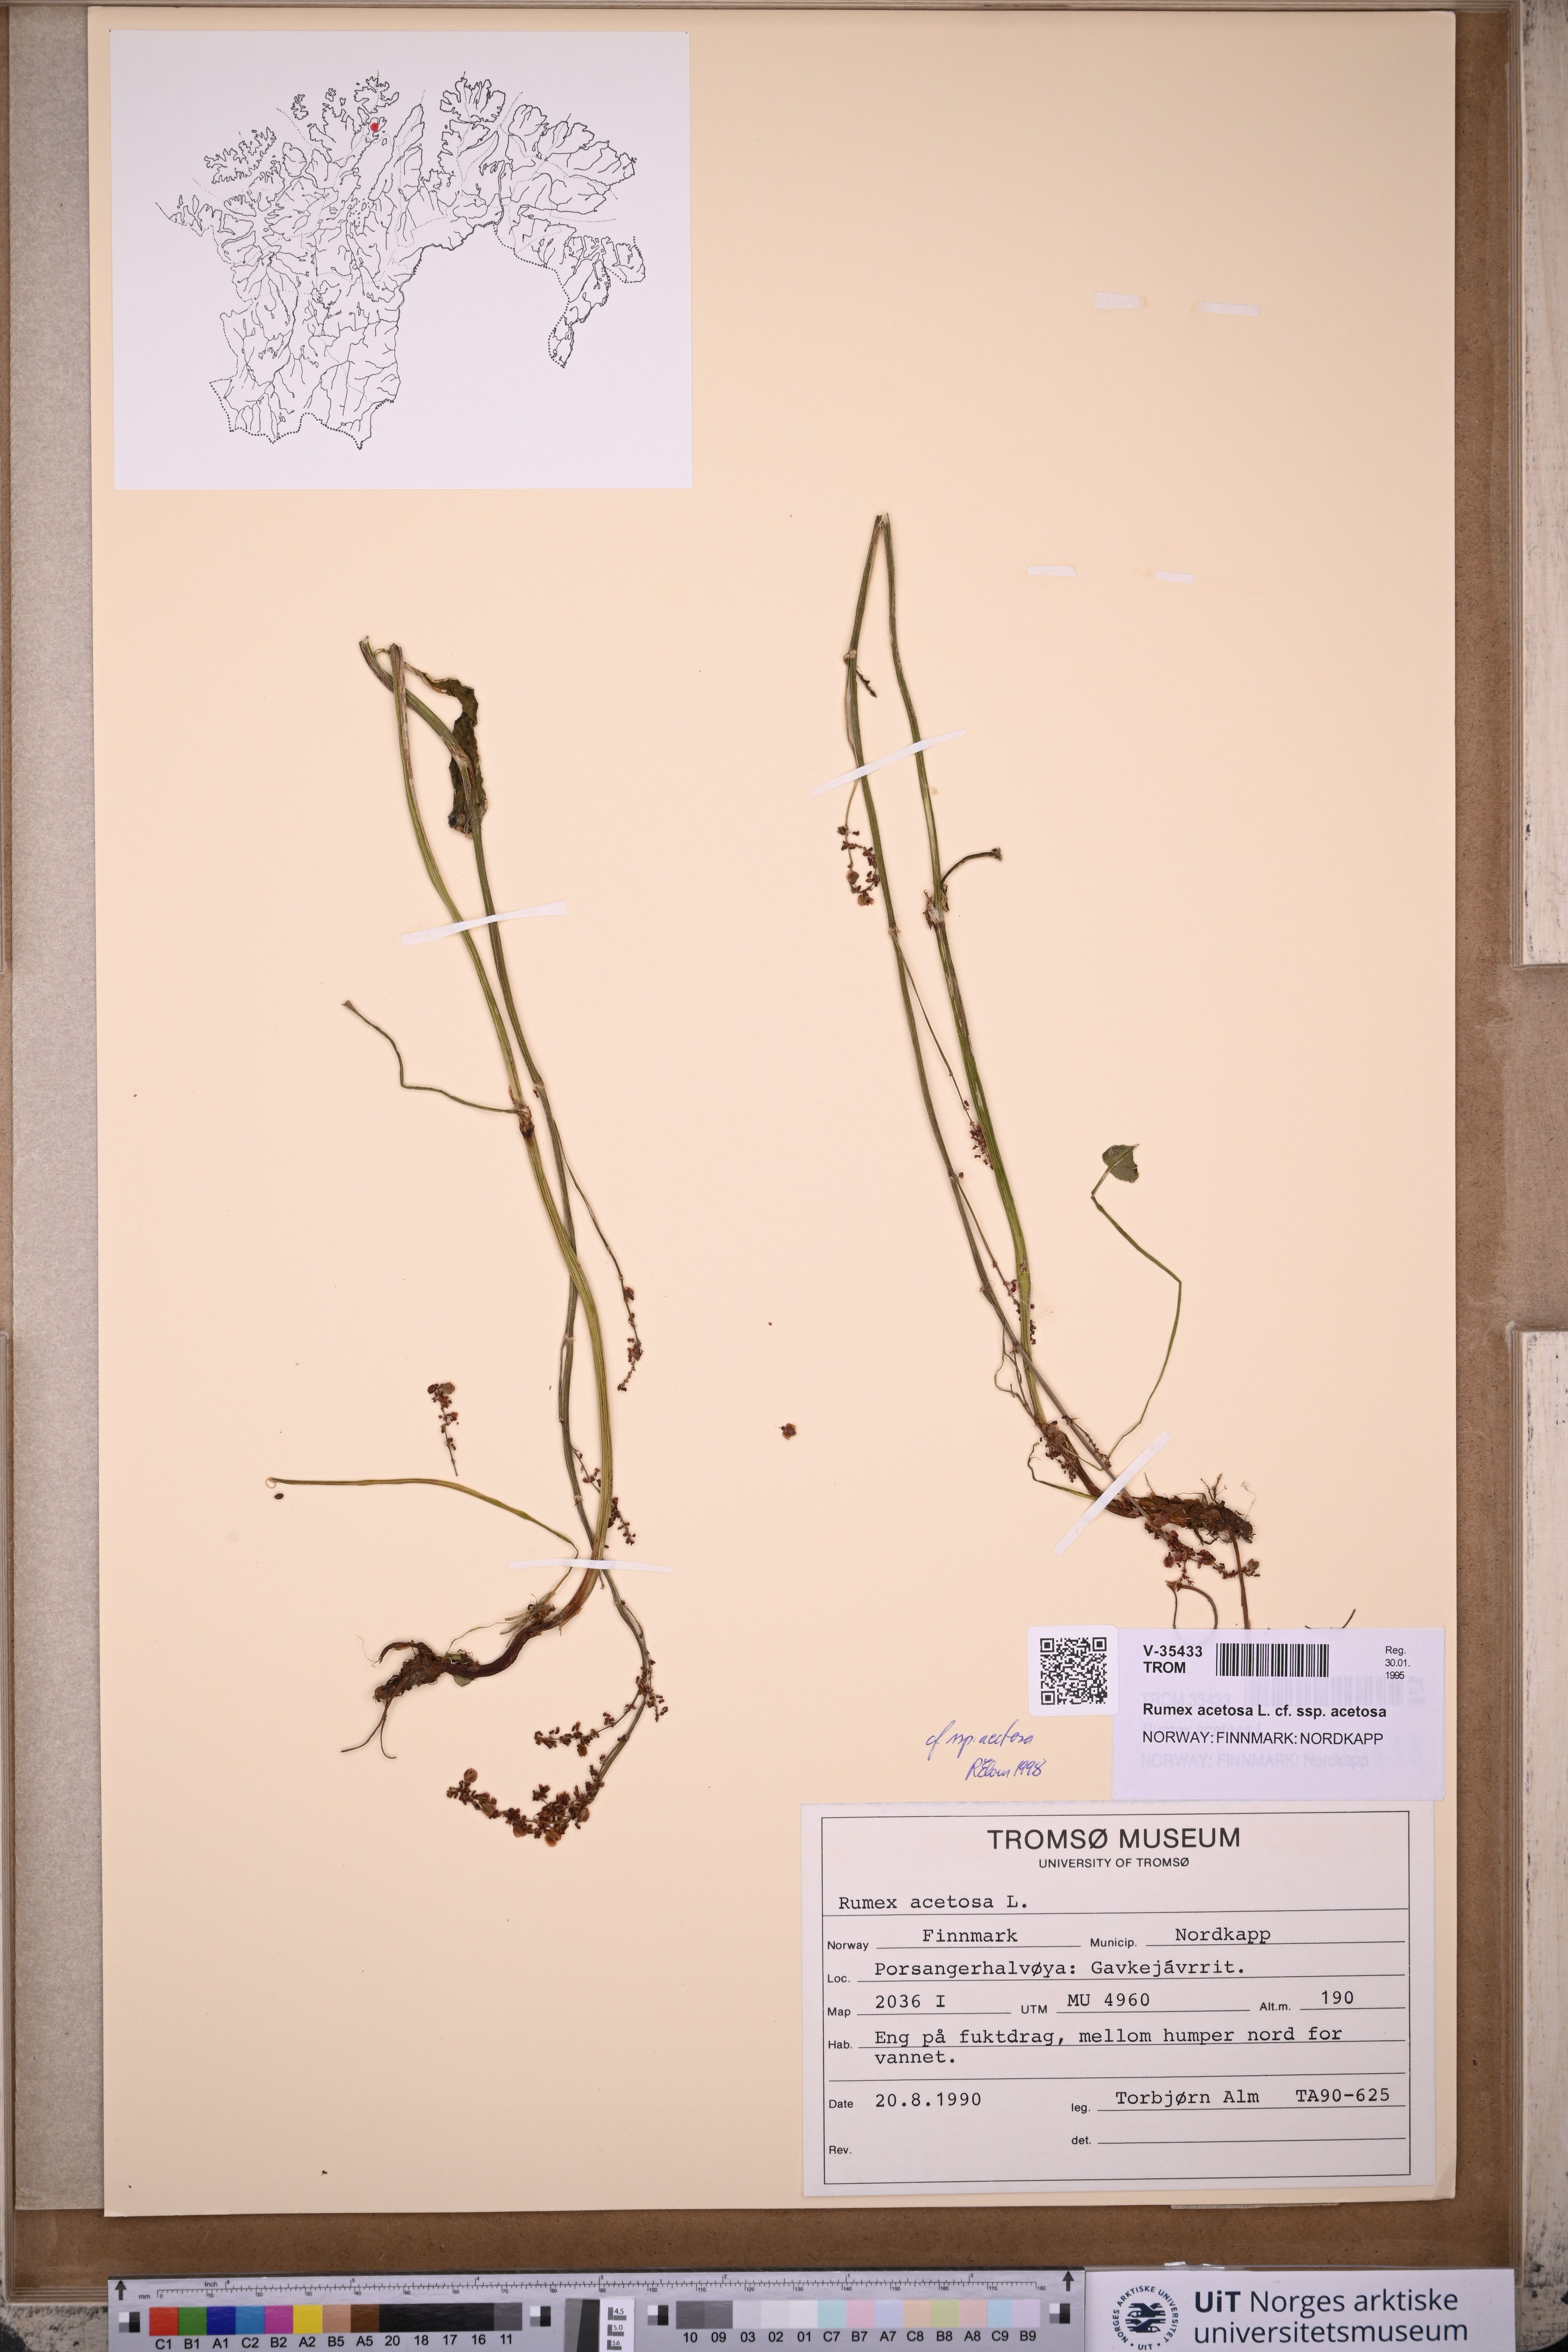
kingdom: Plantae
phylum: Tracheophyta
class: Magnoliopsida
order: Caryophyllales
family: Polygonaceae
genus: Rumex
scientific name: Rumex acetosa
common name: Garden sorrel
